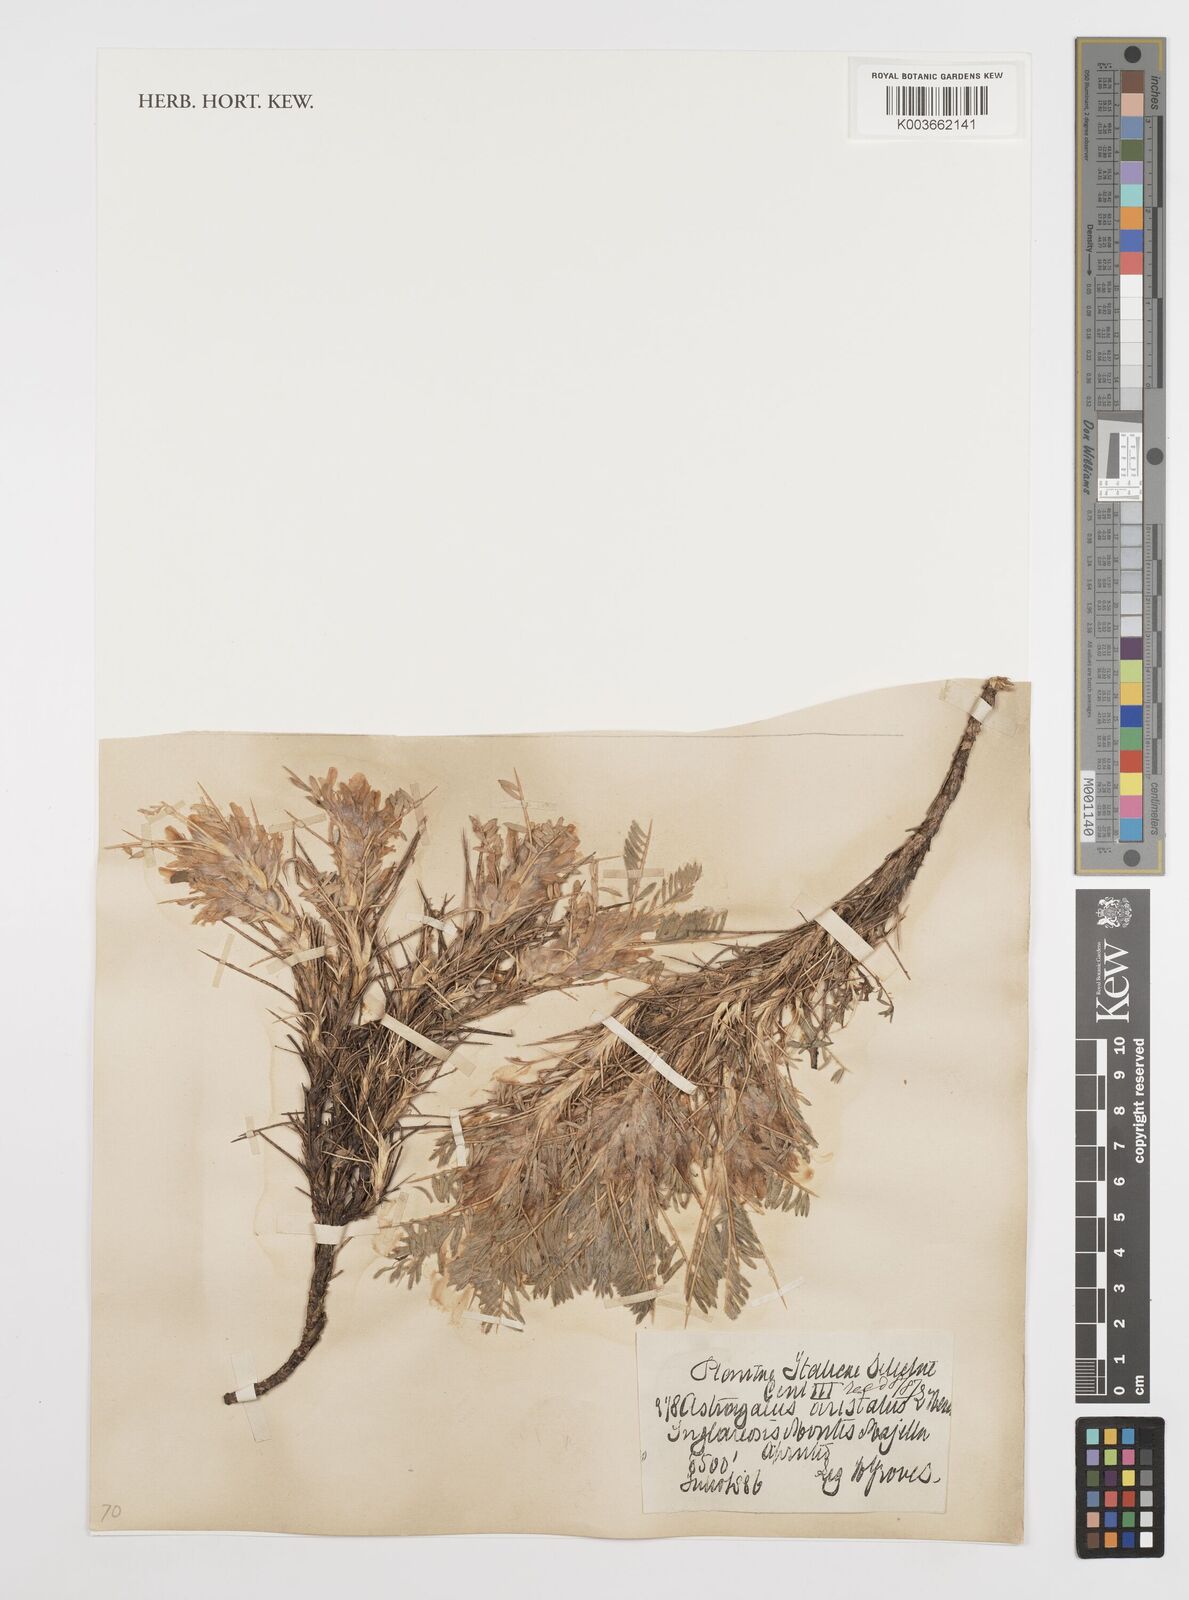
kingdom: Plantae
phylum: Tracheophyta
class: Magnoliopsida
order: Fabales
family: Fabaceae
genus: Astragalus
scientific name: Astragalus parnassi
